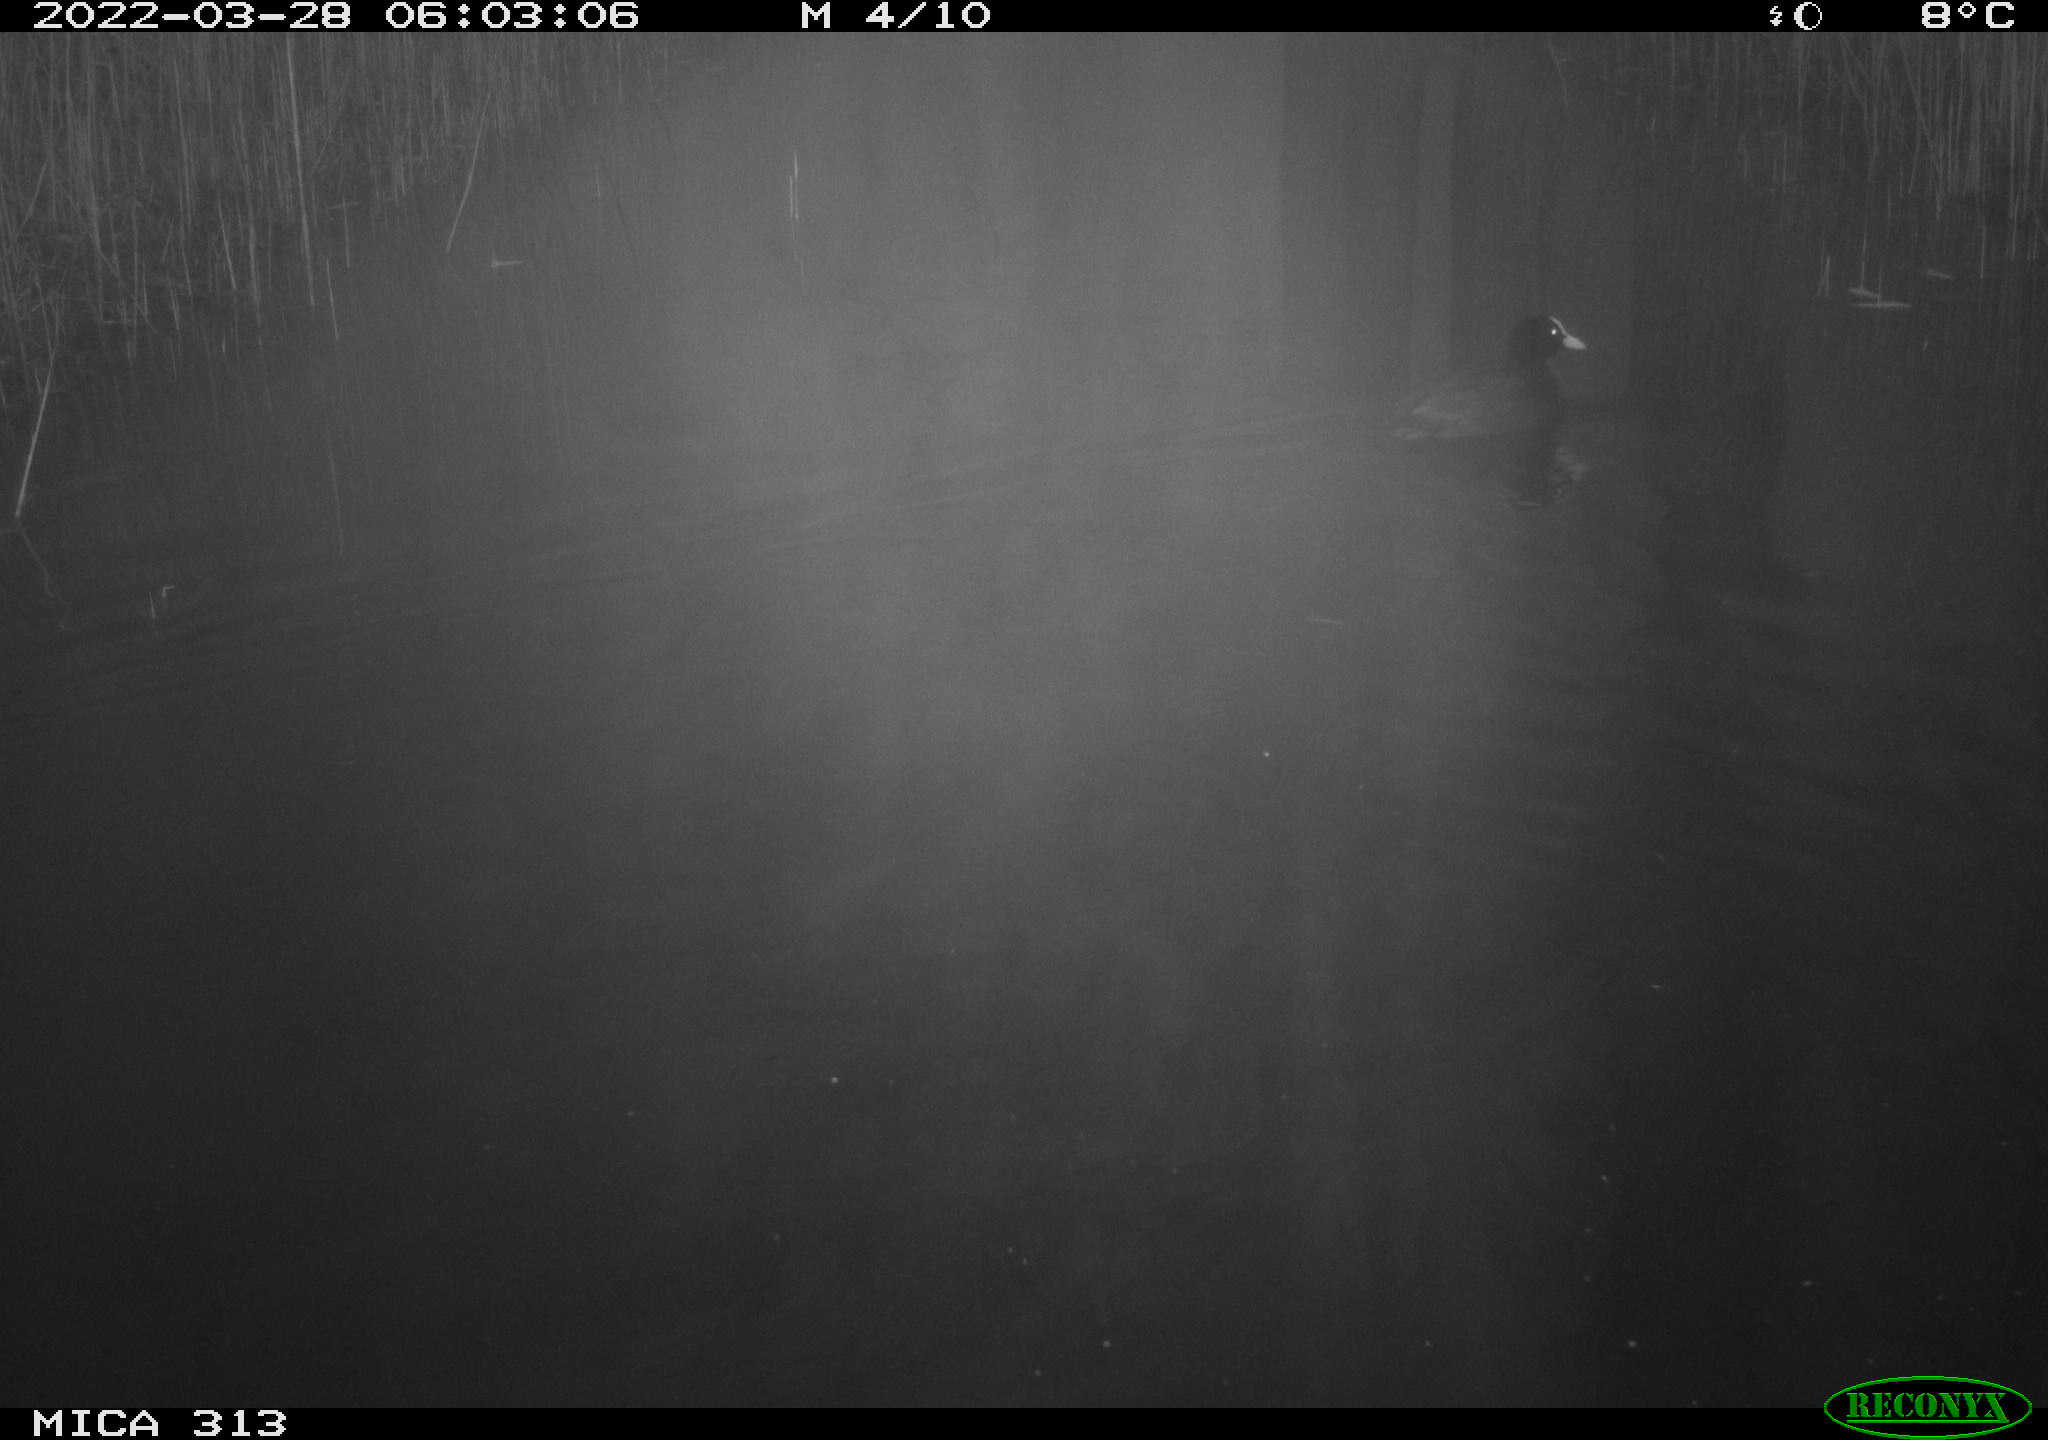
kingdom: Animalia
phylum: Chordata
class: Aves
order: Gruiformes
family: Rallidae
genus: Fulica
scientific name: Fulica atra
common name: Eurasian coot
